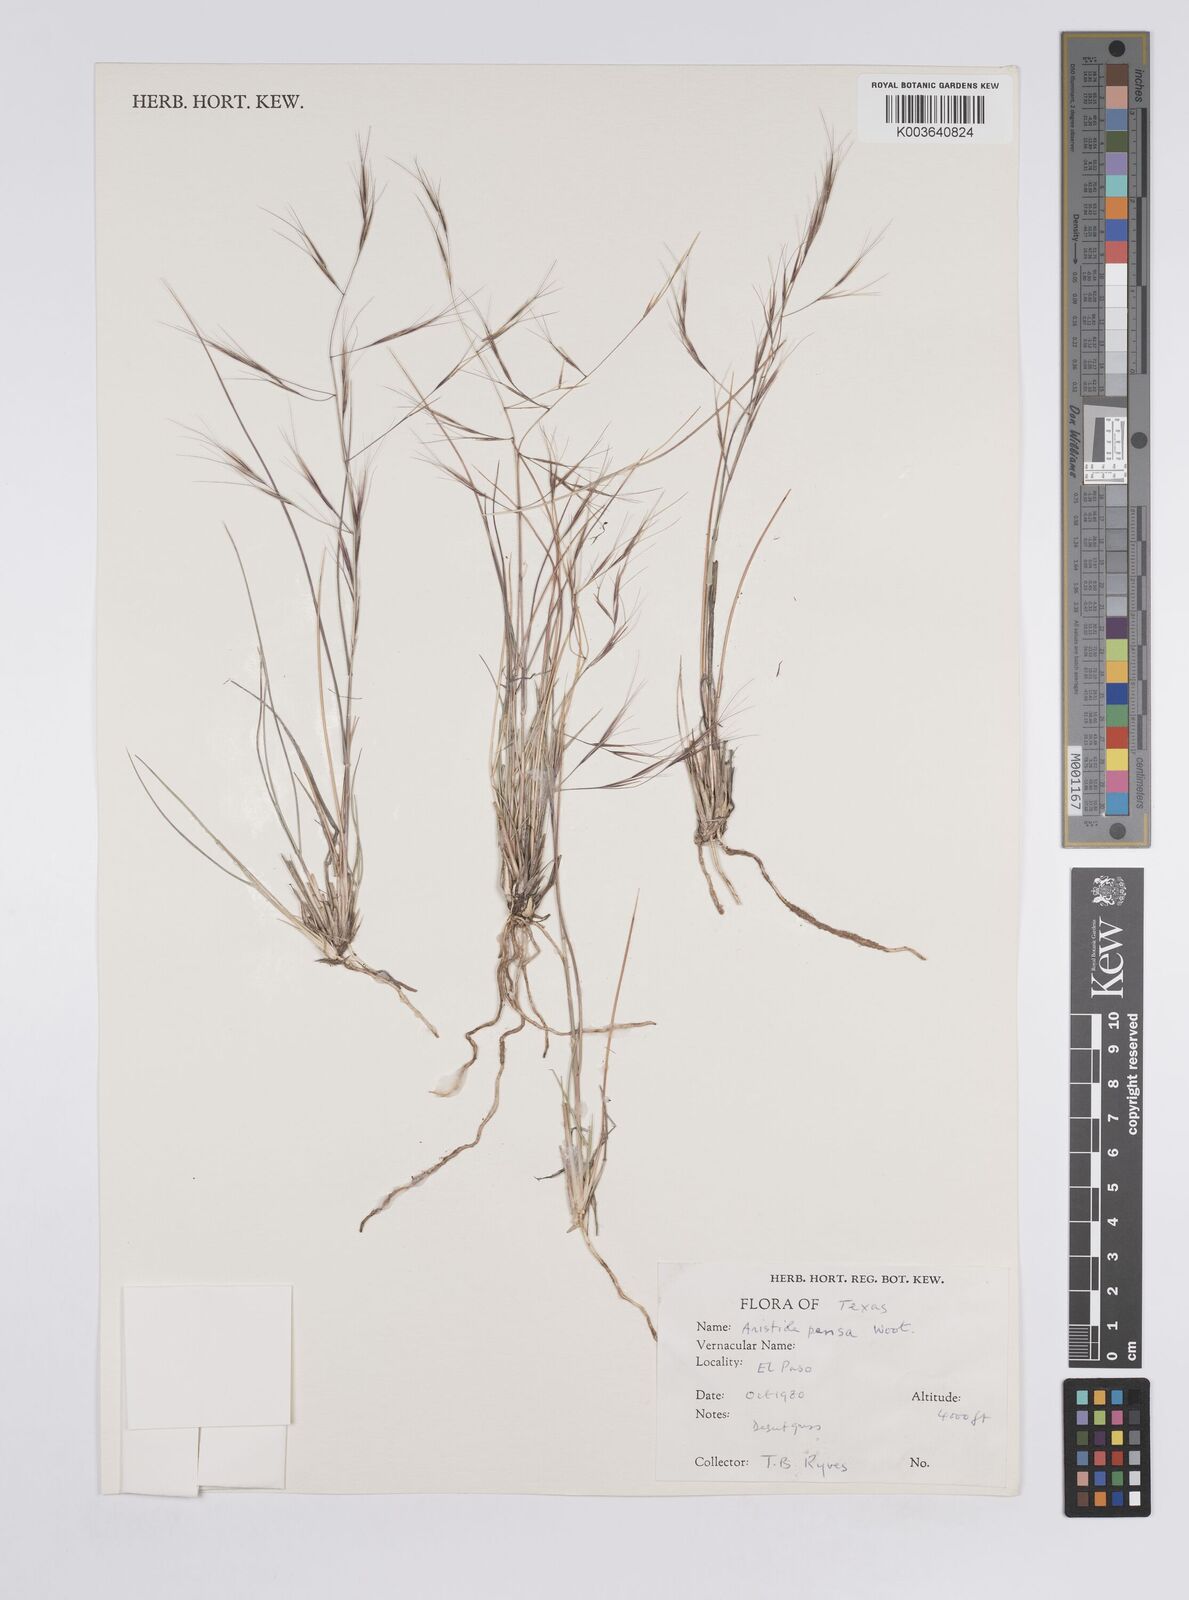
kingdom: Plantae
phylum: Tracheophyta
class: Liliopsida
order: Poales
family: Poaceae
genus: Aristida
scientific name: Aristida pansa
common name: Wooton's three-awn
